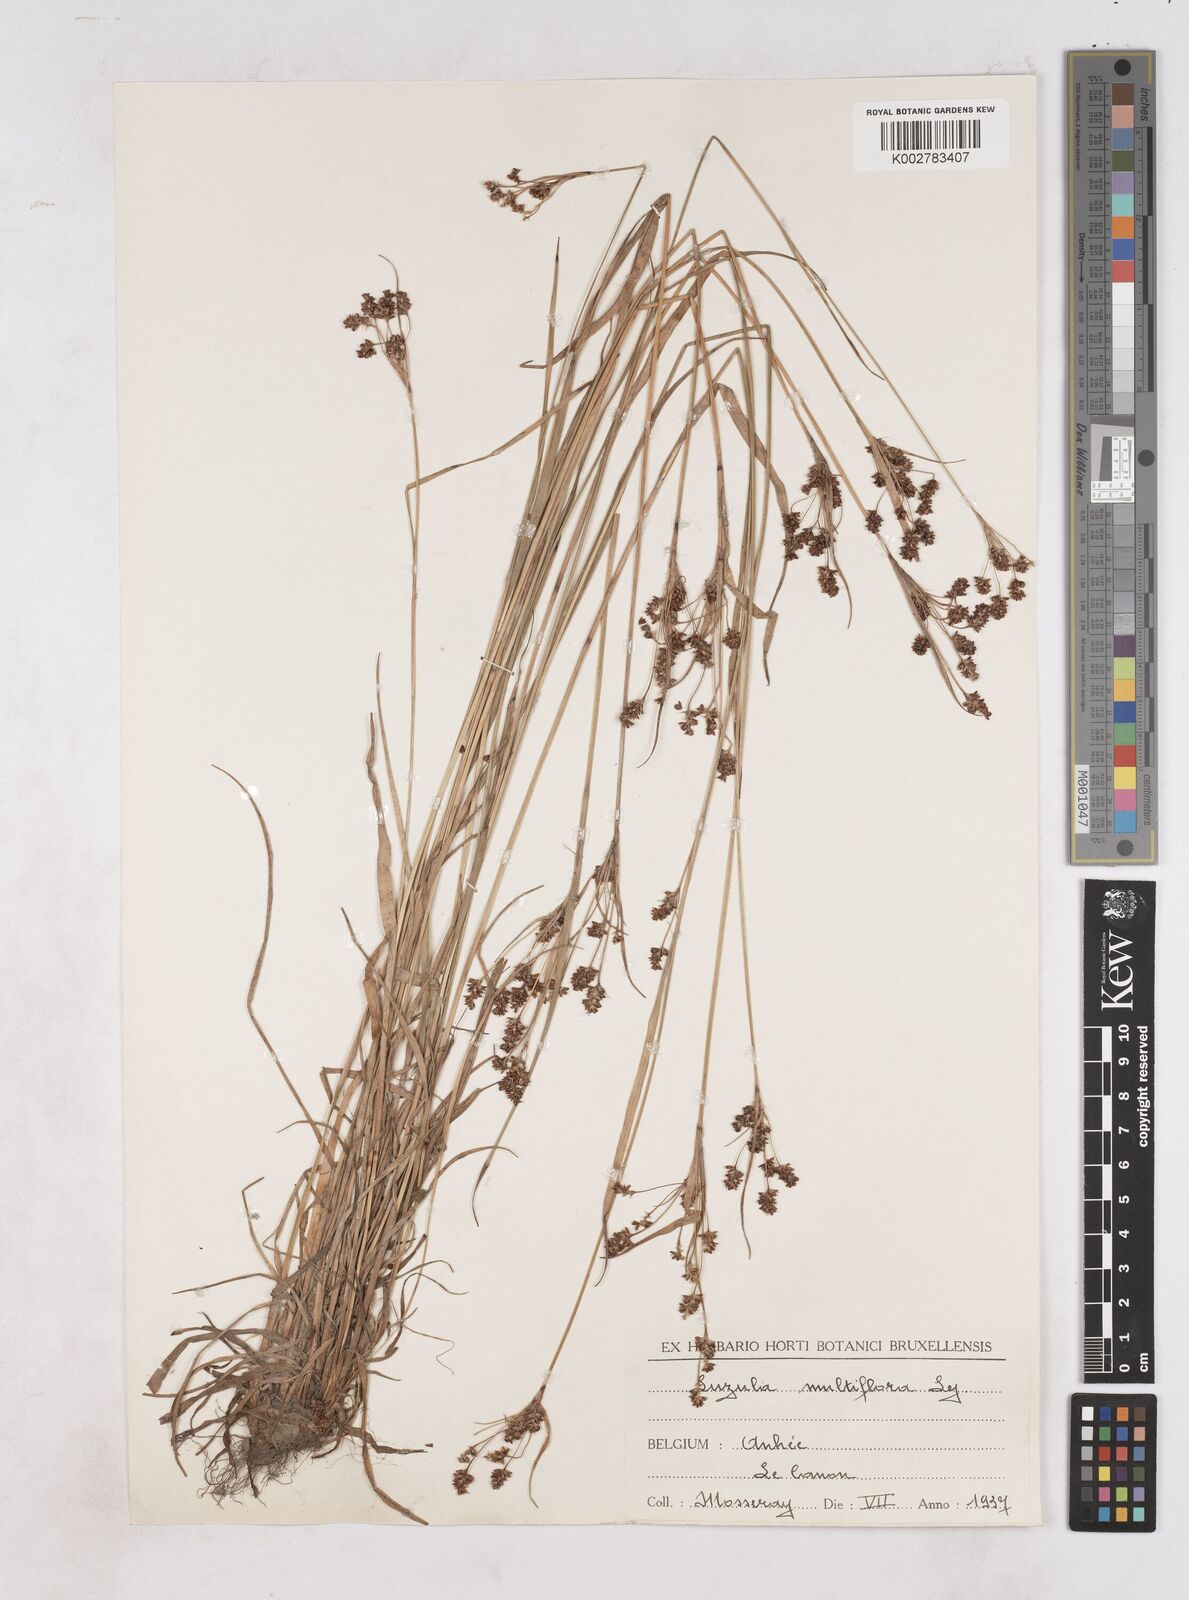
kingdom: Plantae
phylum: Tracheophyta
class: Liliopsida
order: Poales
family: Juncaceae
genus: Luzula
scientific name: Luzula multiflora
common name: Heath wood-rush
